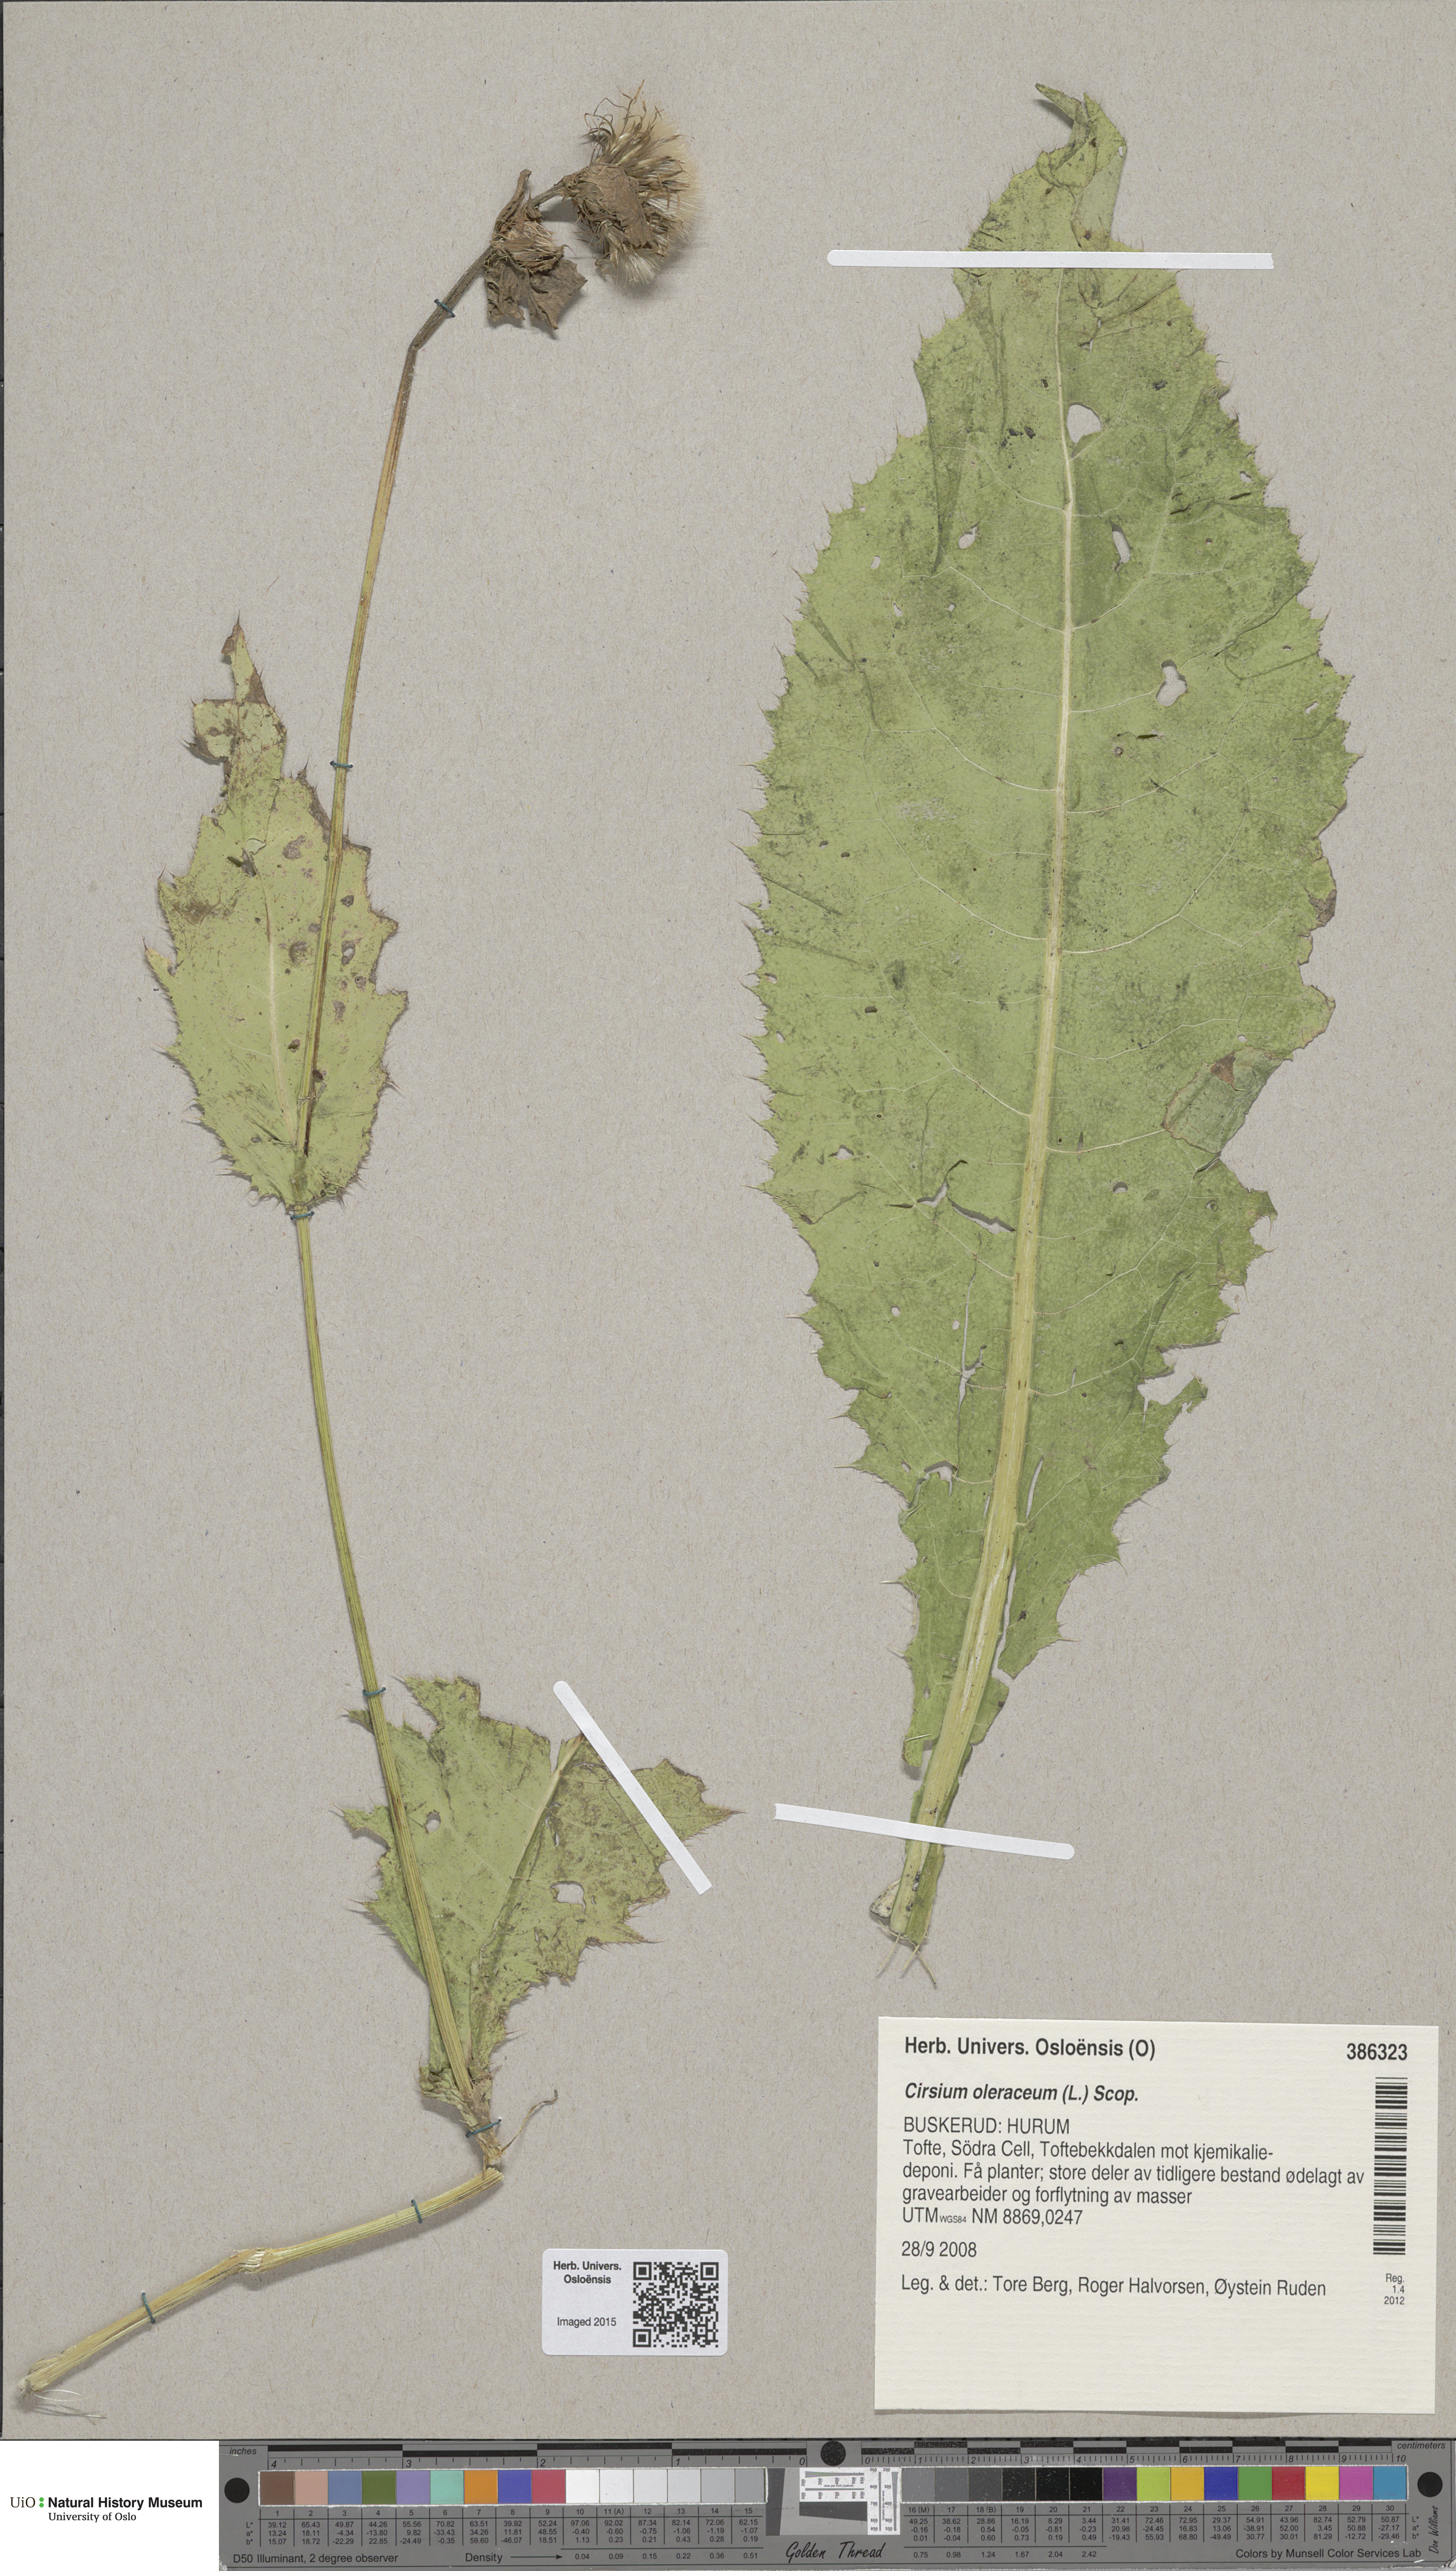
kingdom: Plantae
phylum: Tracheophyta
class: Magnoliopsida
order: Asterales
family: Asteraceae
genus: Cirsium
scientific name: Cirsium oleraceum
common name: Cabbage thistle
